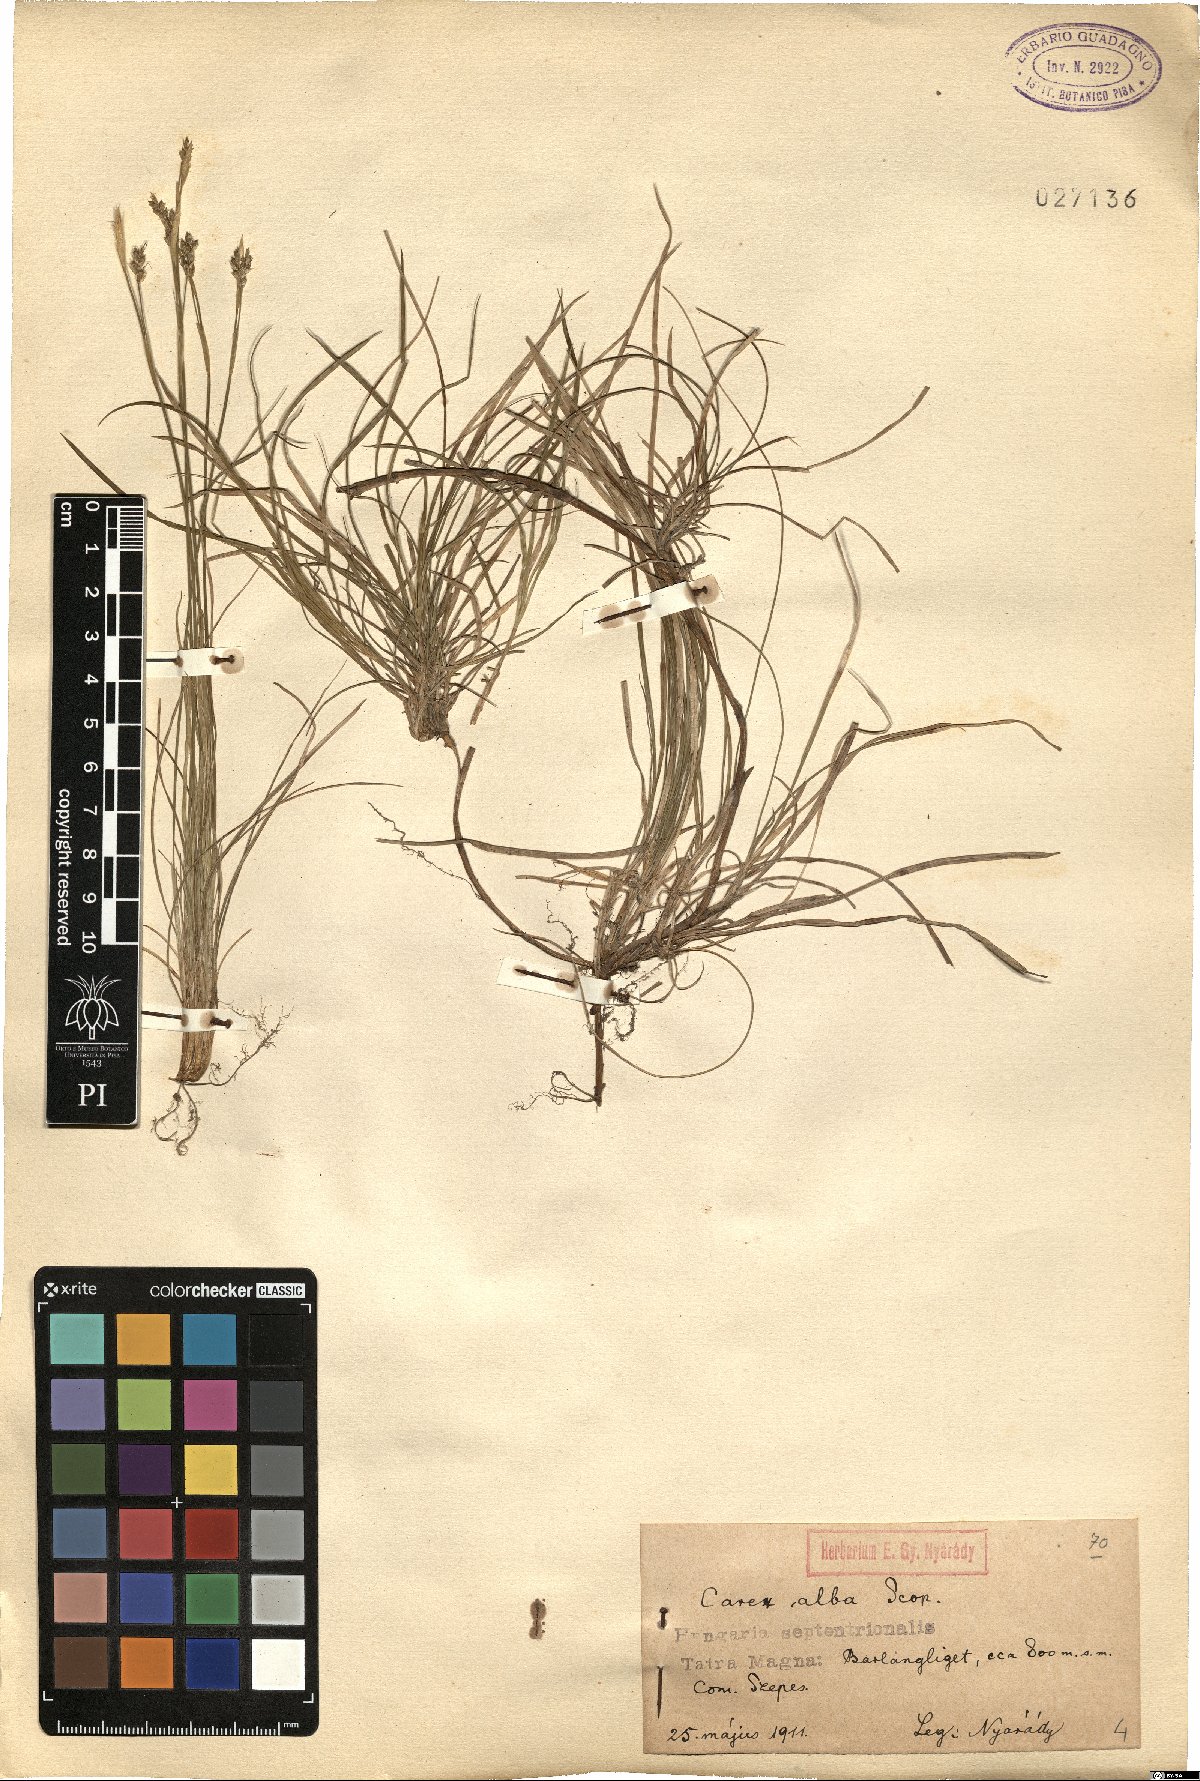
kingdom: Plantae
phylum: Tracheophyta
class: Liliopsida
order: Poales
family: Cyperaceae
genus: Carex
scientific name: Carex alba
